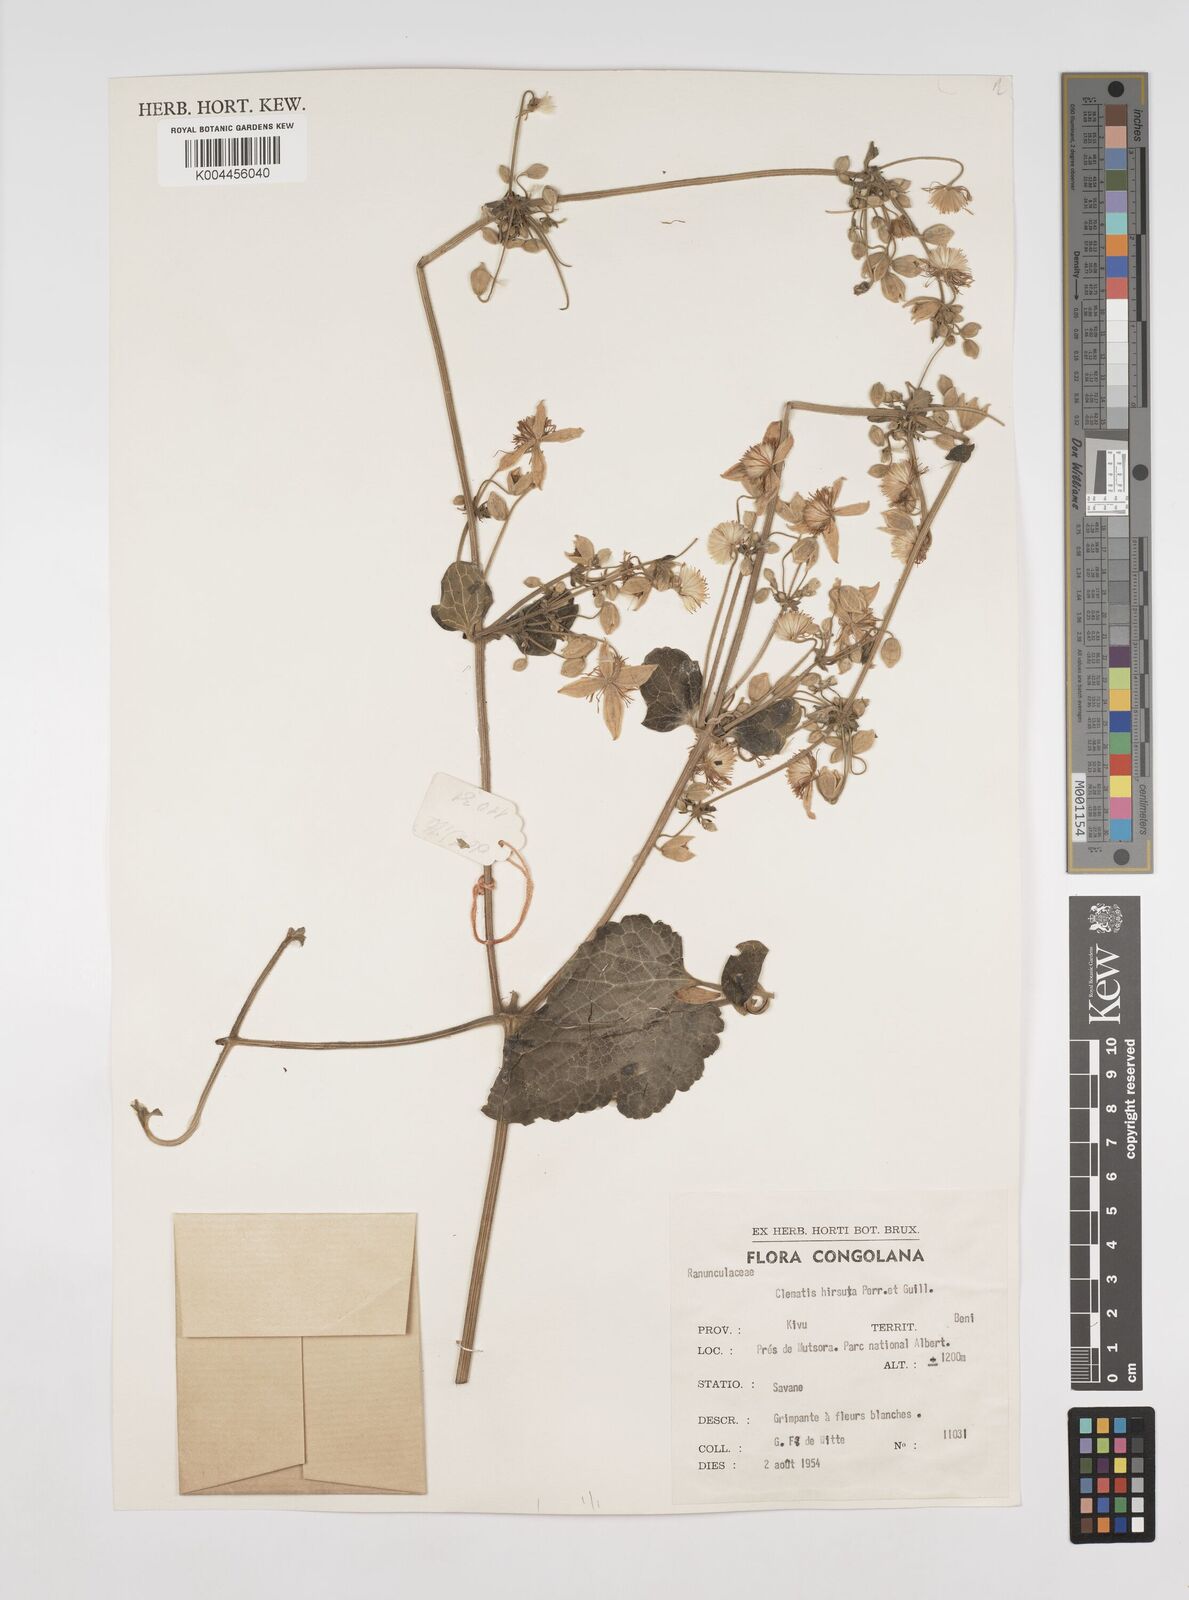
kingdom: Plantae
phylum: Tracheophyta
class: Magnoliopsida
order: Ranunculales
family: Ranunculaceae
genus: Clematis
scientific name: Clematis hirsuta
